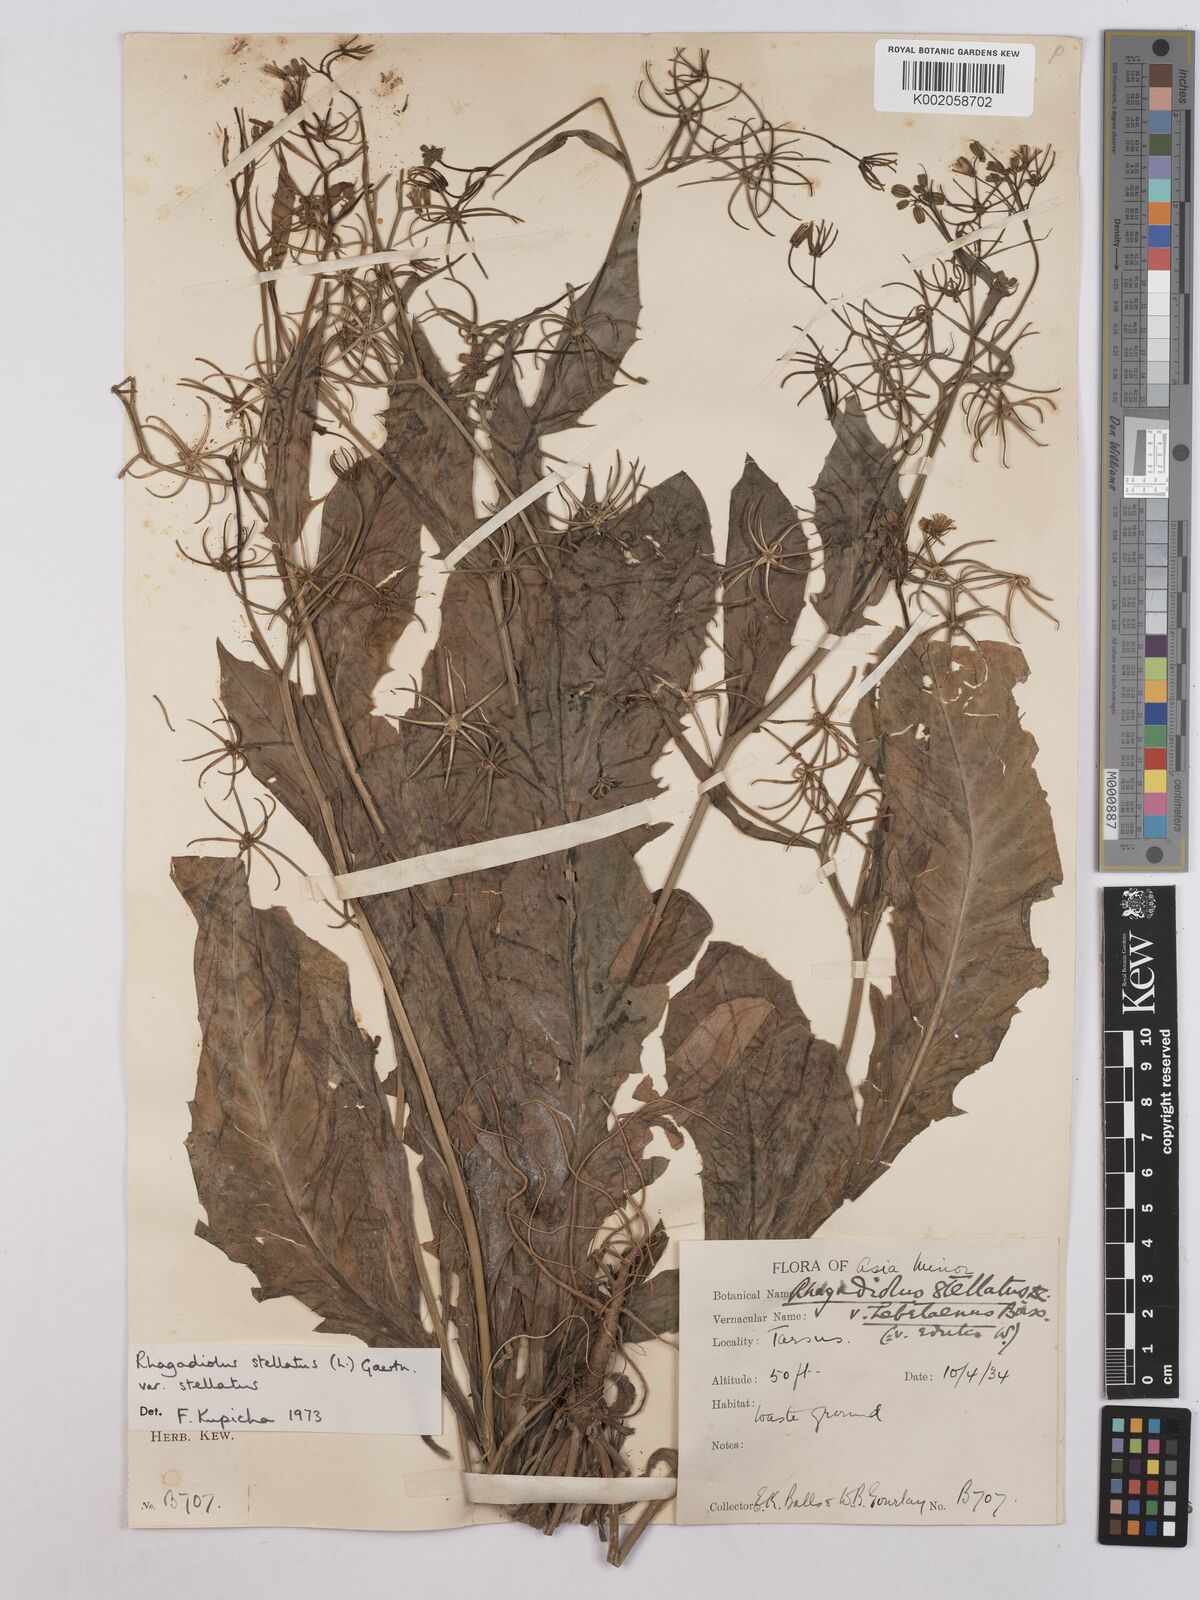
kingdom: Plantae
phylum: Tracheophyta
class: Magnoliopsida
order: Asterales
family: Asteraceae
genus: Rhagadiolus
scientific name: Rhagadiolus stellatus
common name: Star hawkbit
